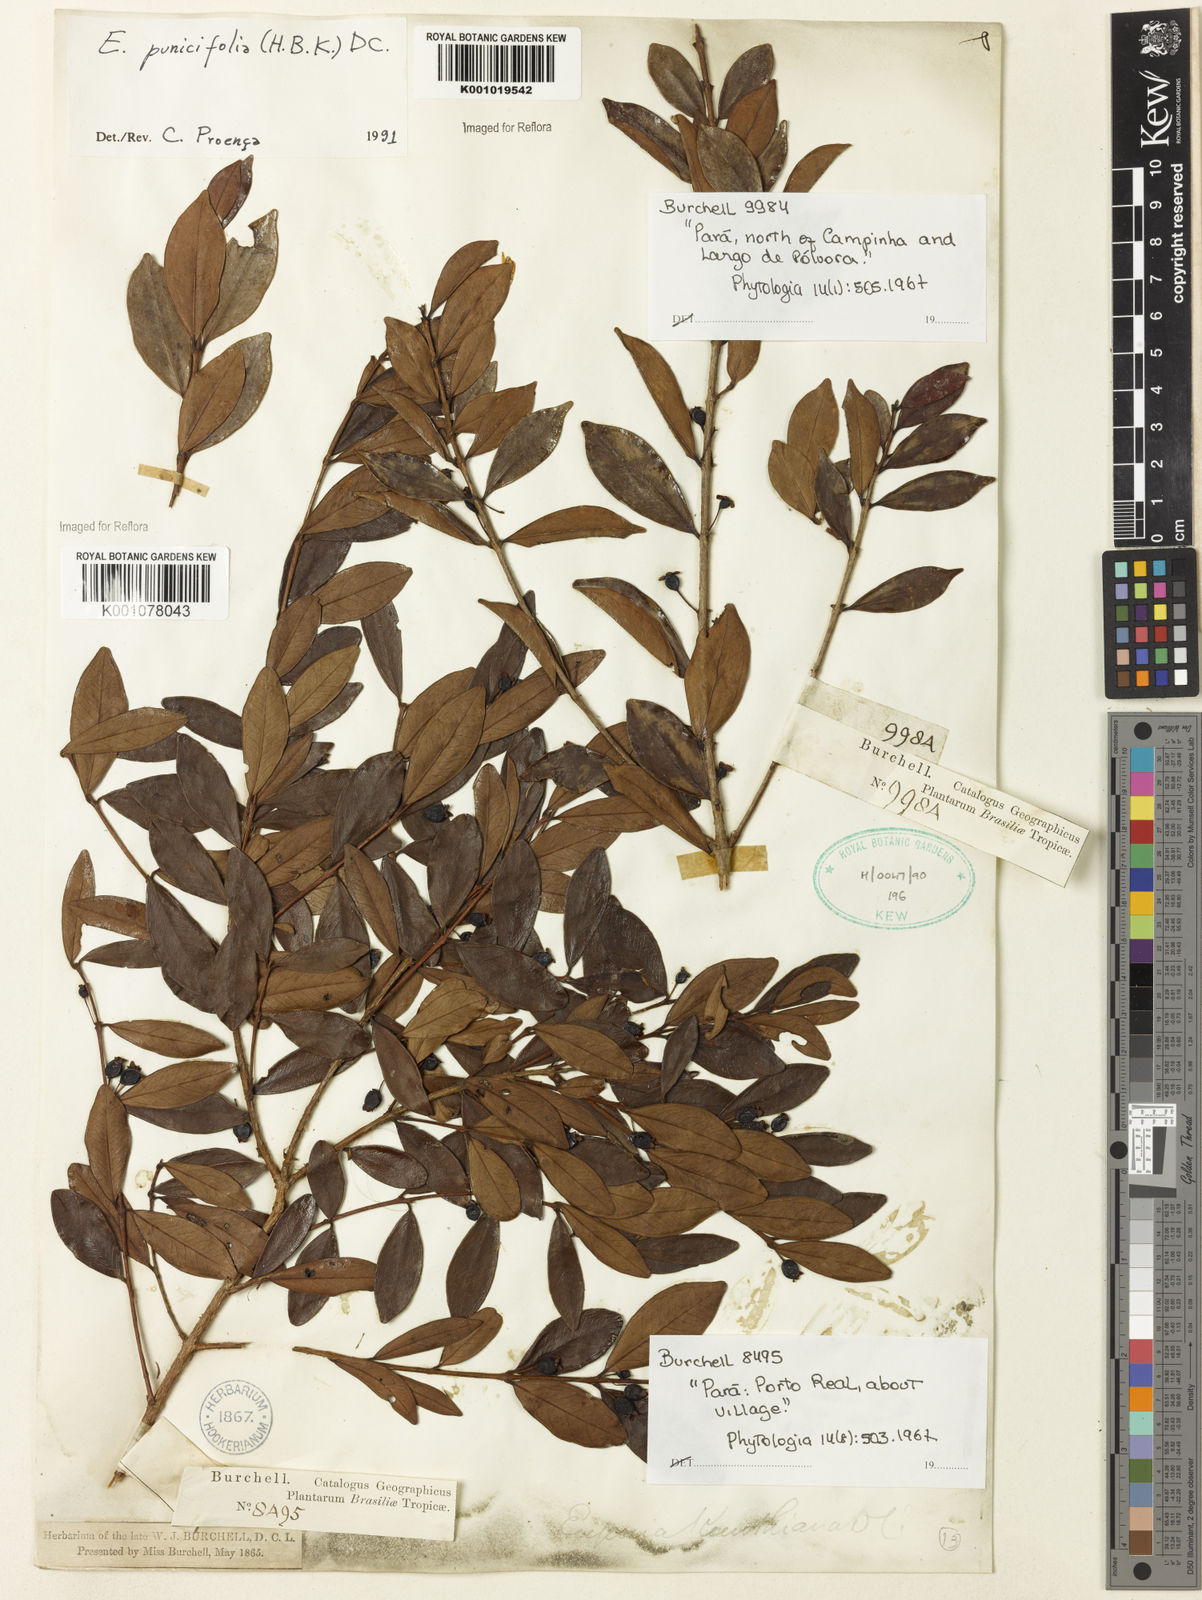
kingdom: Plantae
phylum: Tracheophyta
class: Magnoliopsida
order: Myrtales
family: Myrtaceae
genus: Eugenia
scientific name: Eugenia punicifolia
